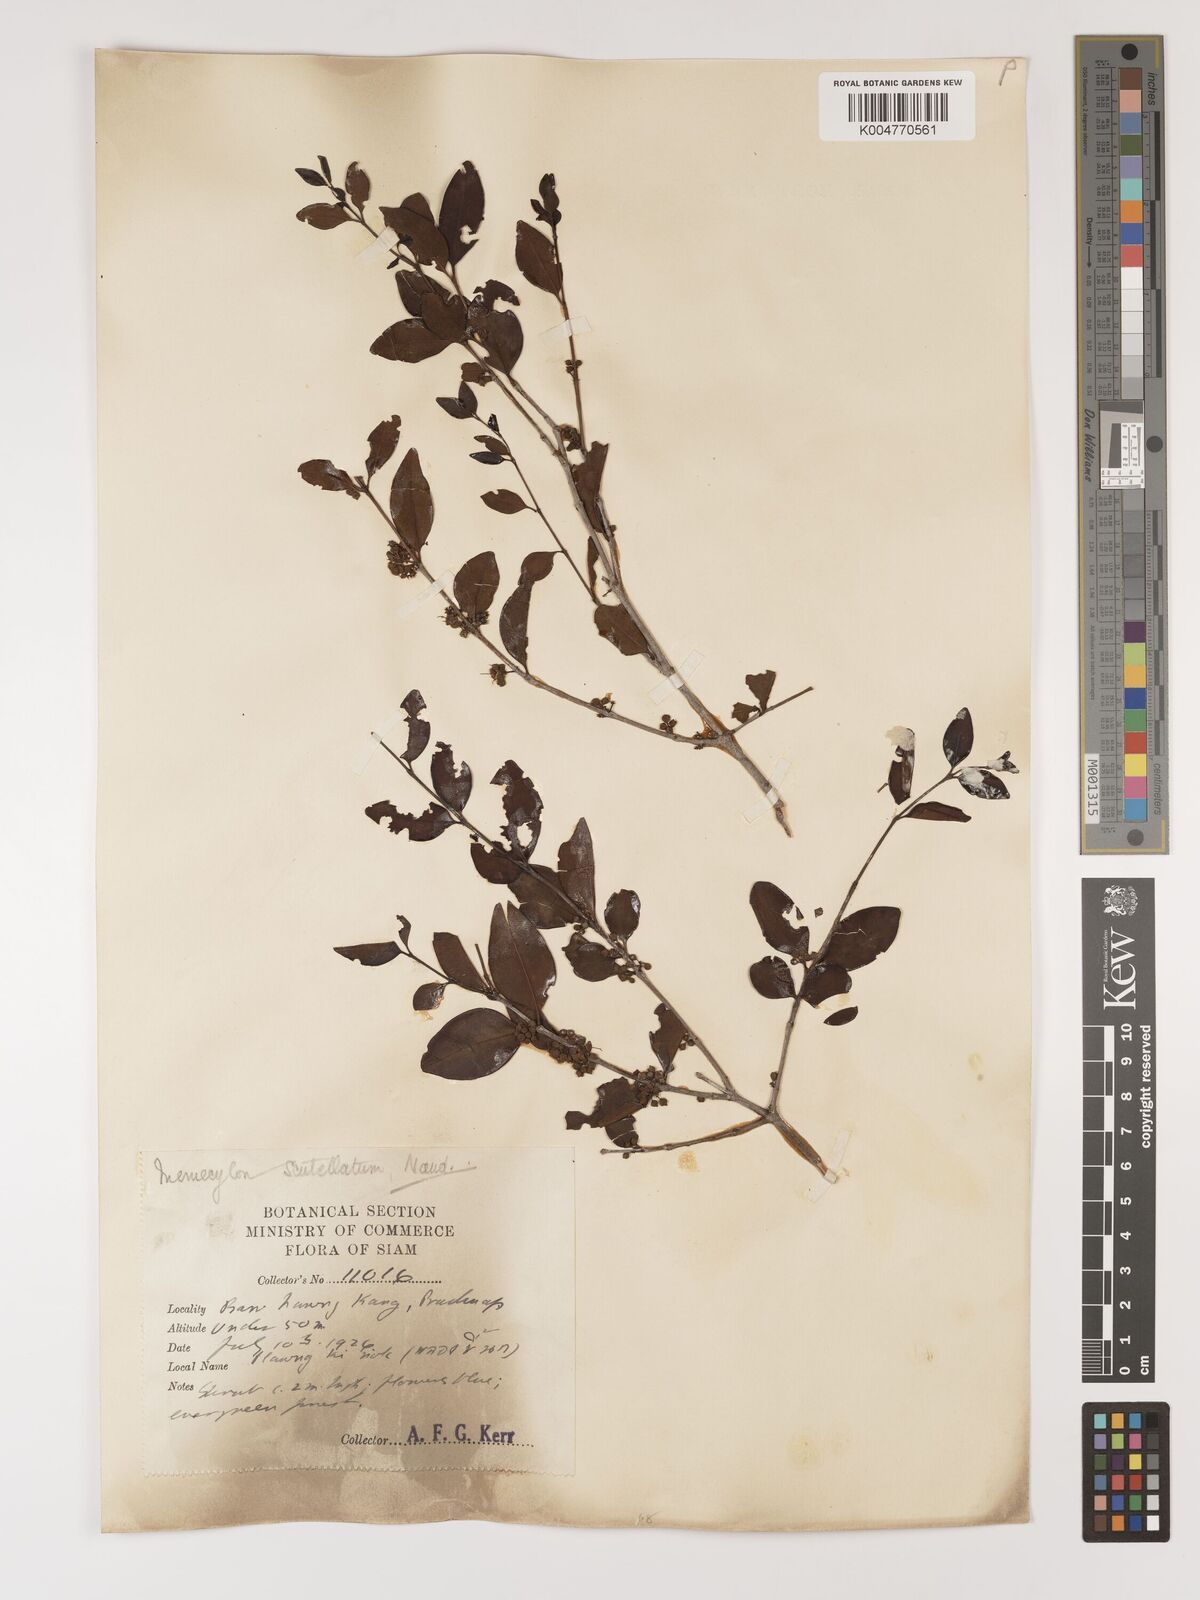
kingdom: Plantae
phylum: Tracheophyta
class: Magnoliopsida
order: Myrtales
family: Melastomataceae
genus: Memecylon
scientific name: Memecylon scutellatum
